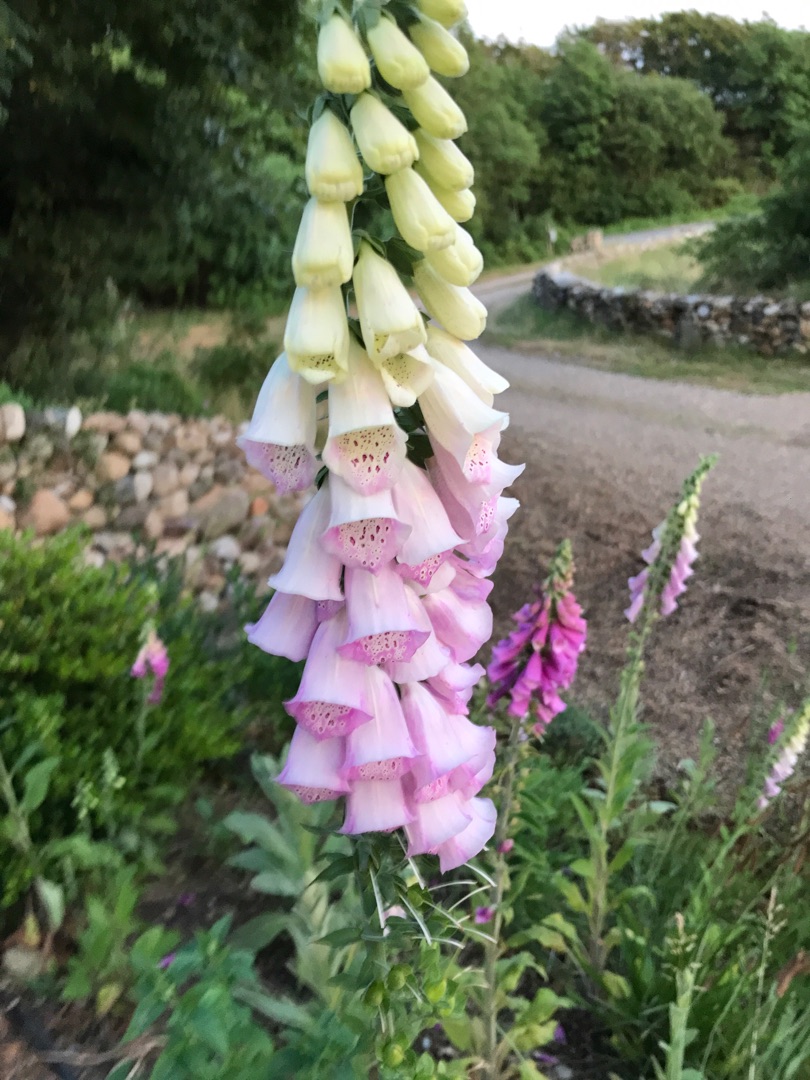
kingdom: Plantae
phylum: Tracheophyta
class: Magnoliopsida
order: Lamiales
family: Plantaginaceae
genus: Digitalis
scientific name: Digitalis purpurea
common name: Almindelig fingerbøl
